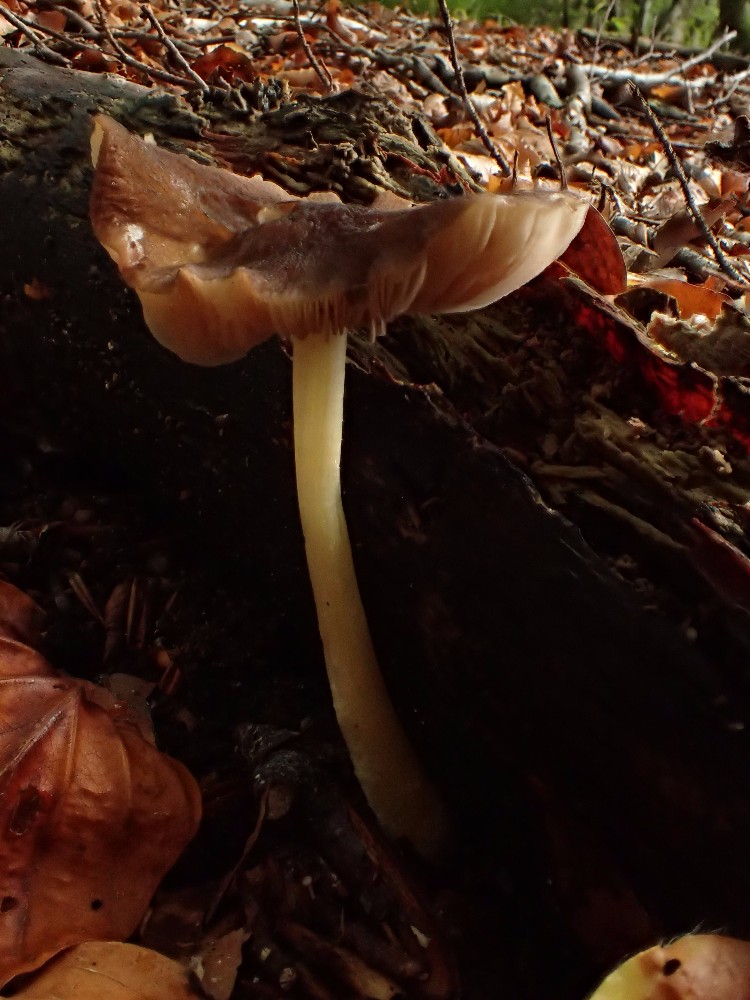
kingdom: Fungi
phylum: Basidiomycota
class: Agaricomycetes
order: Agaricales
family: Pluteaceae
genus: Pluteus
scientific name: Pluteus romellii
